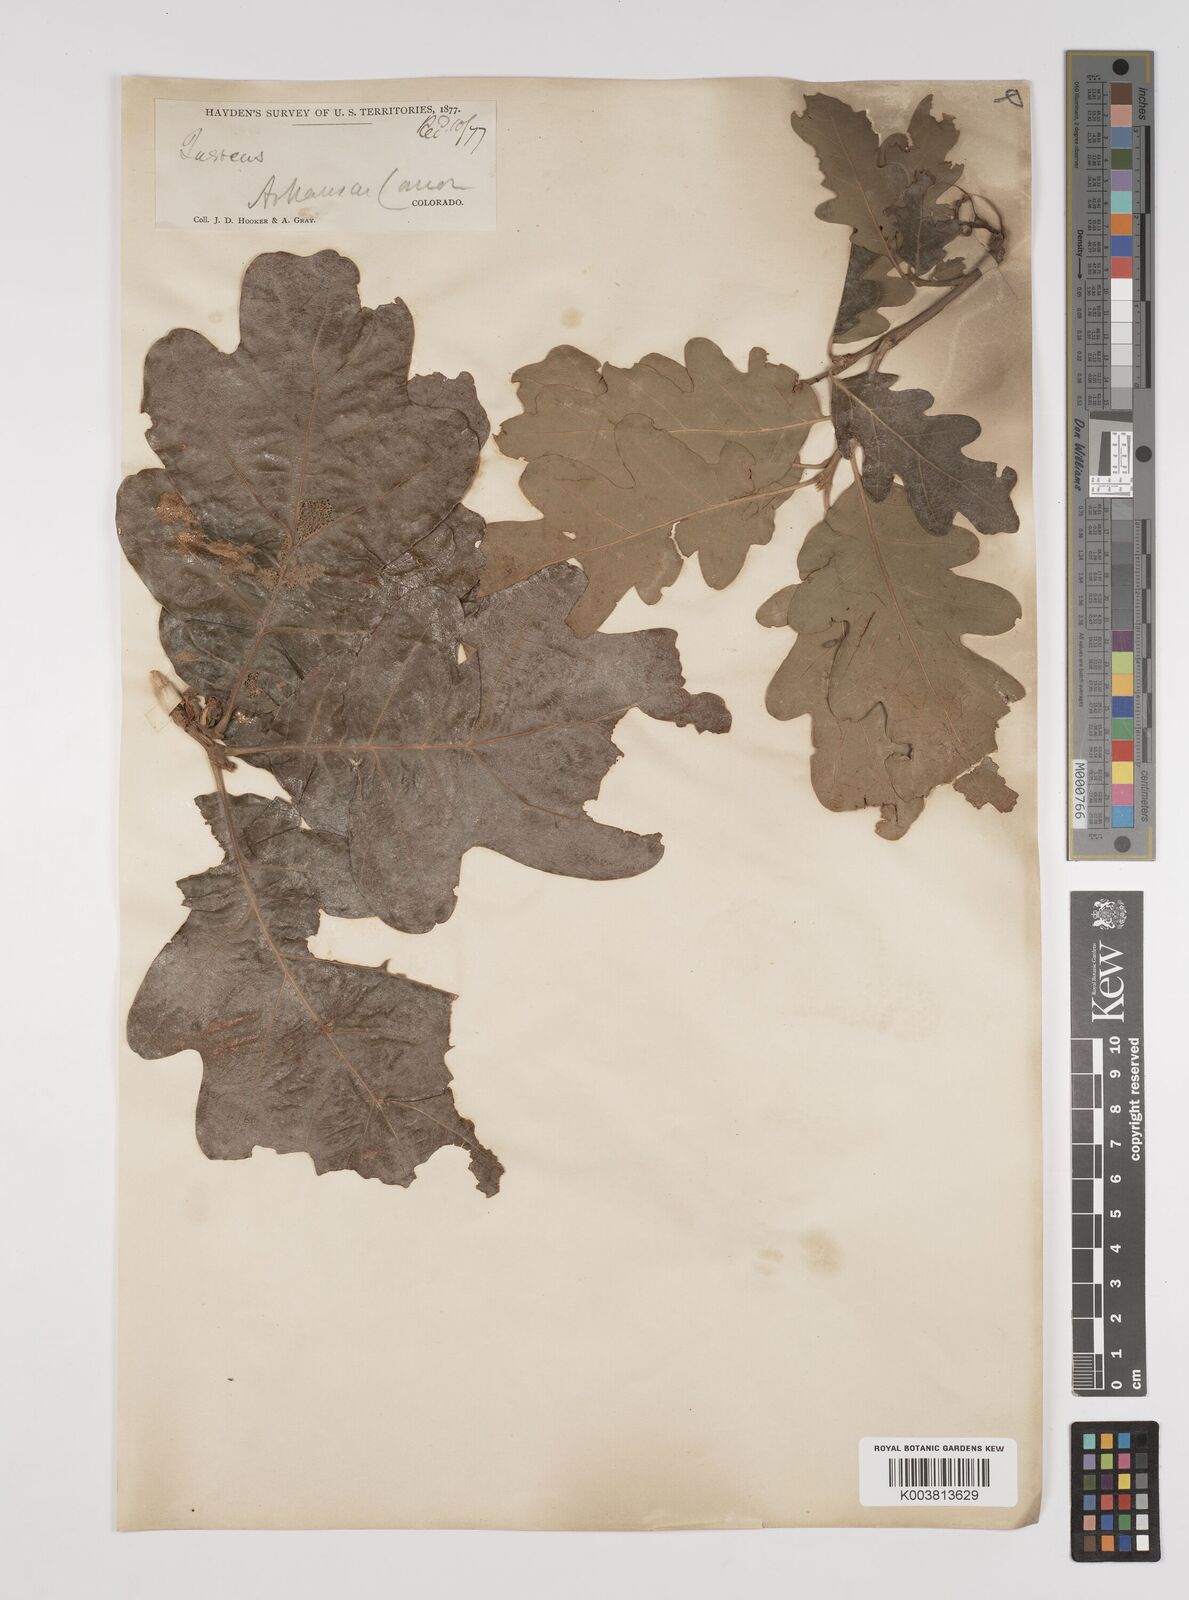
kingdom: Plantae
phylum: Tracheophyta
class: Magnoliopsida
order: Fagales
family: Fagaceae
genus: Quercus
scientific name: Quercus stellata
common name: Post oak
